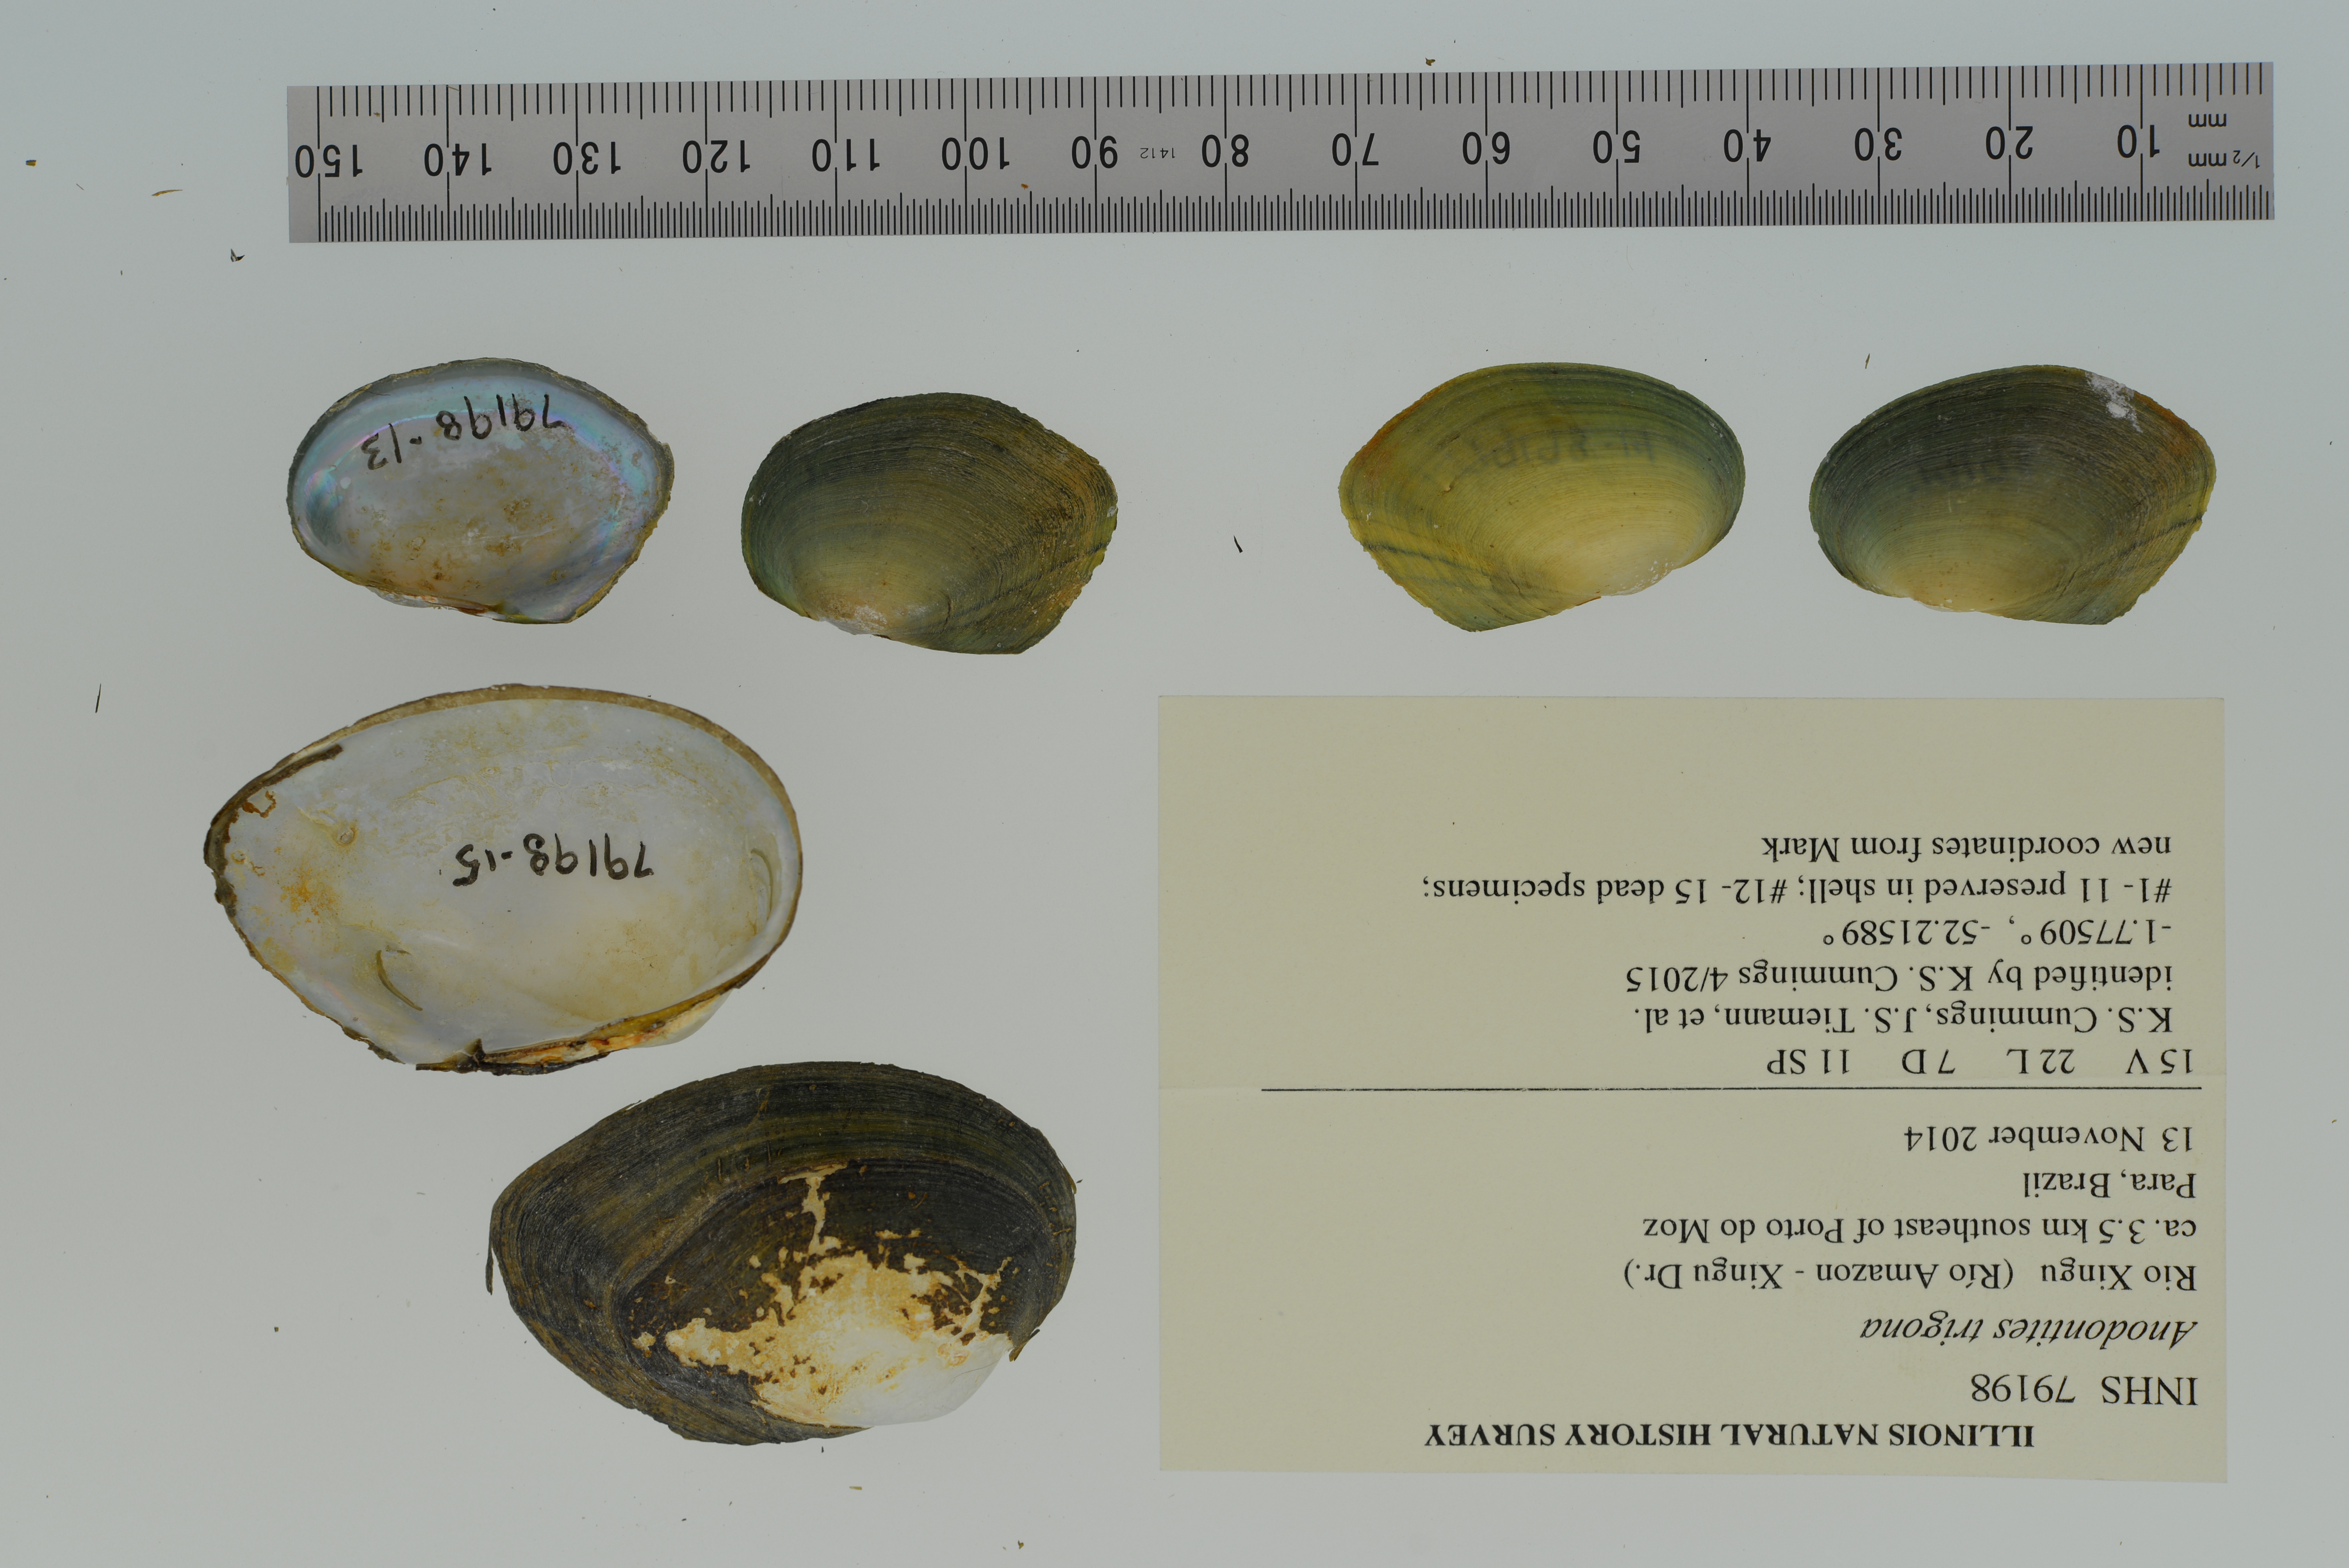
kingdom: Animalia
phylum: Mollusca
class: Bivalvia
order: Unionida
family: Mycetopodidae
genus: Anodontites
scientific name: Anodontites trigona
